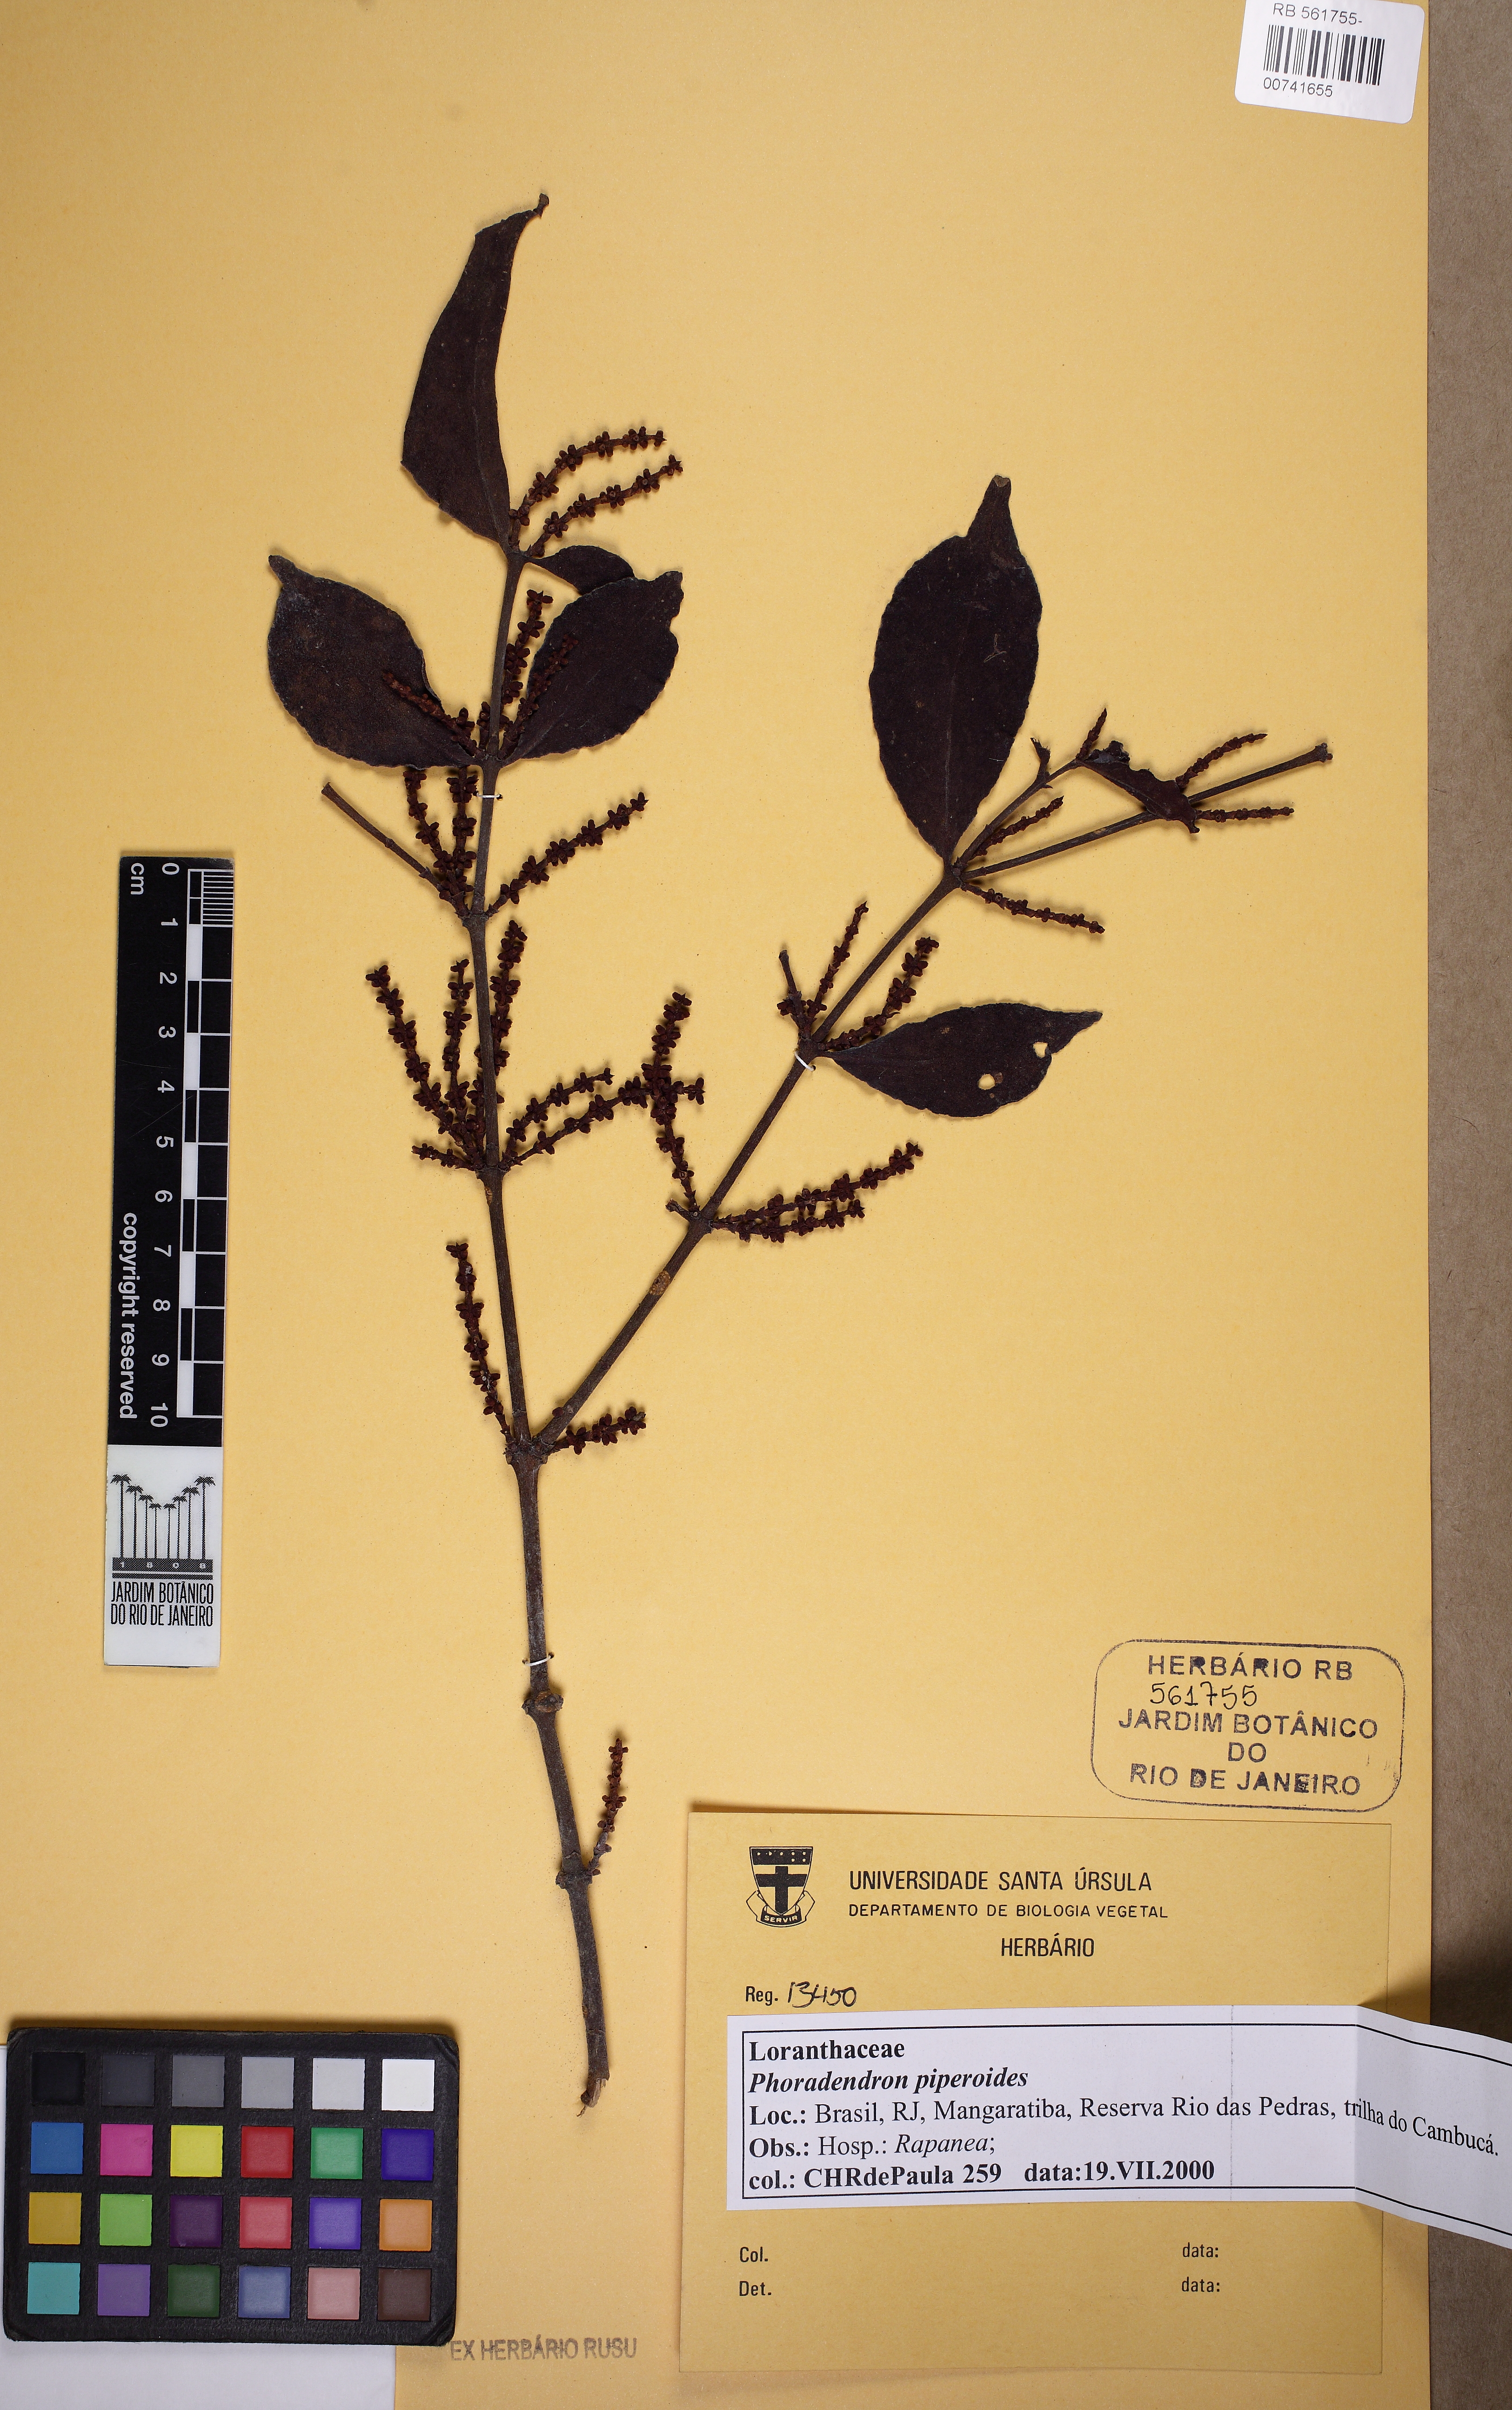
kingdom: Plantae
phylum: Tracheophyta
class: Magnoliopsida
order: Santalales
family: Viscaceae
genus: Phoradendron
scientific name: Phoradendron piperoides
